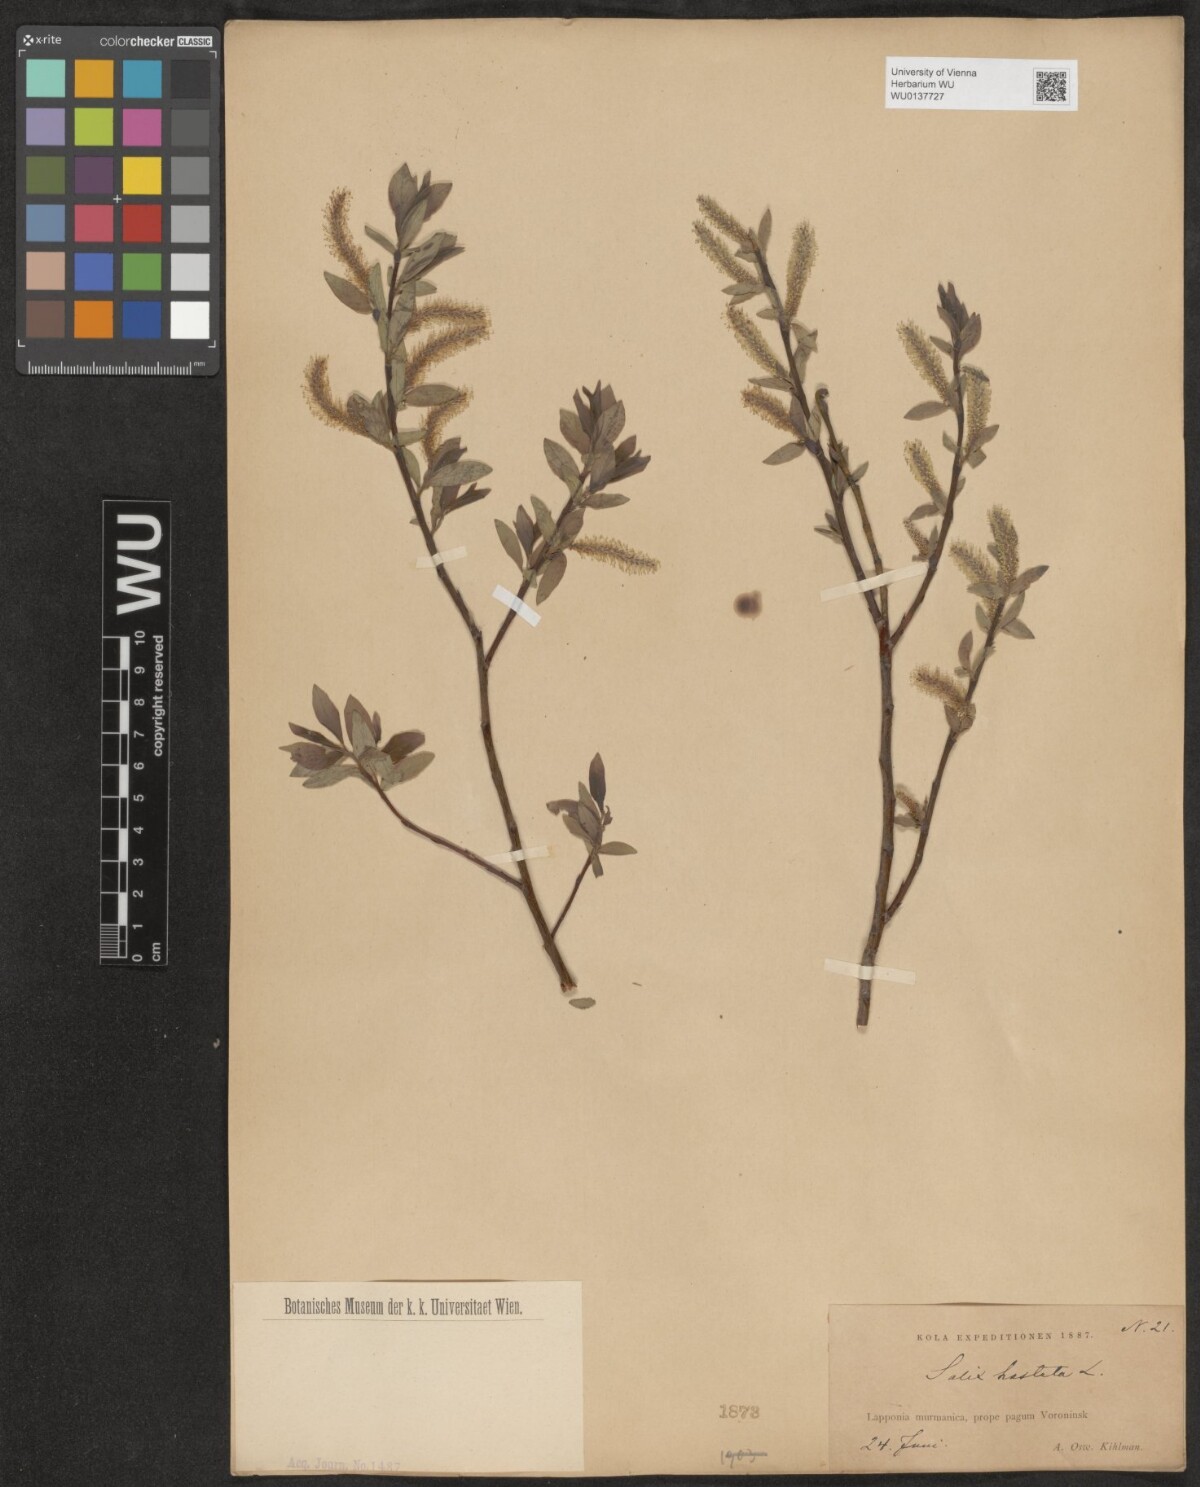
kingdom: Plantae
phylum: Tracheophyta
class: Magnoliopsida
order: Malpighiales
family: Salicaceae
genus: Salix
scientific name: Salix hastata
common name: Halberd willow
